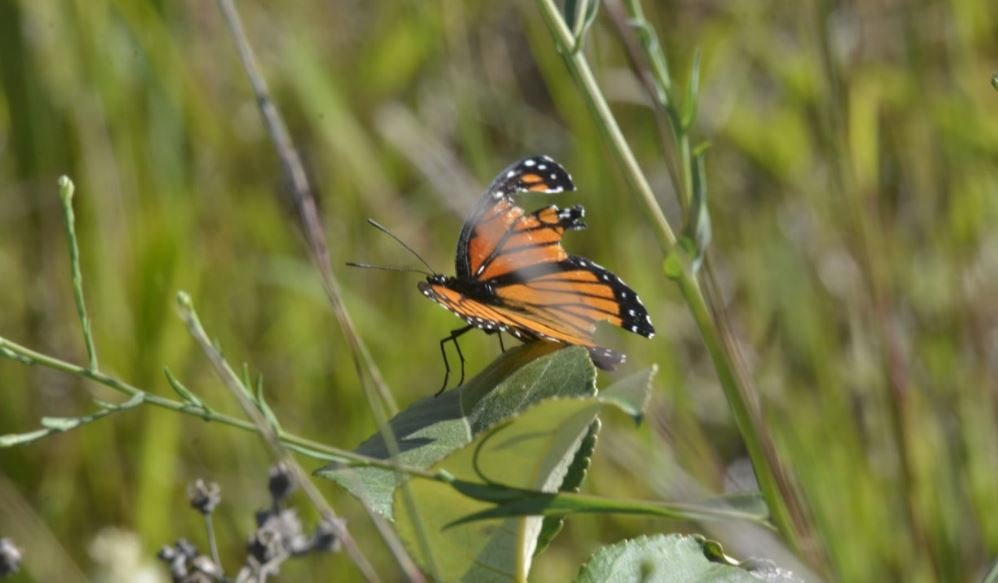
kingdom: Animalia
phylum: Arthropoda
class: Insecta
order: Lepidoptera
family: Nymphalidae
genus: Danaus
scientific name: Danaus plexippus
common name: Monarch
